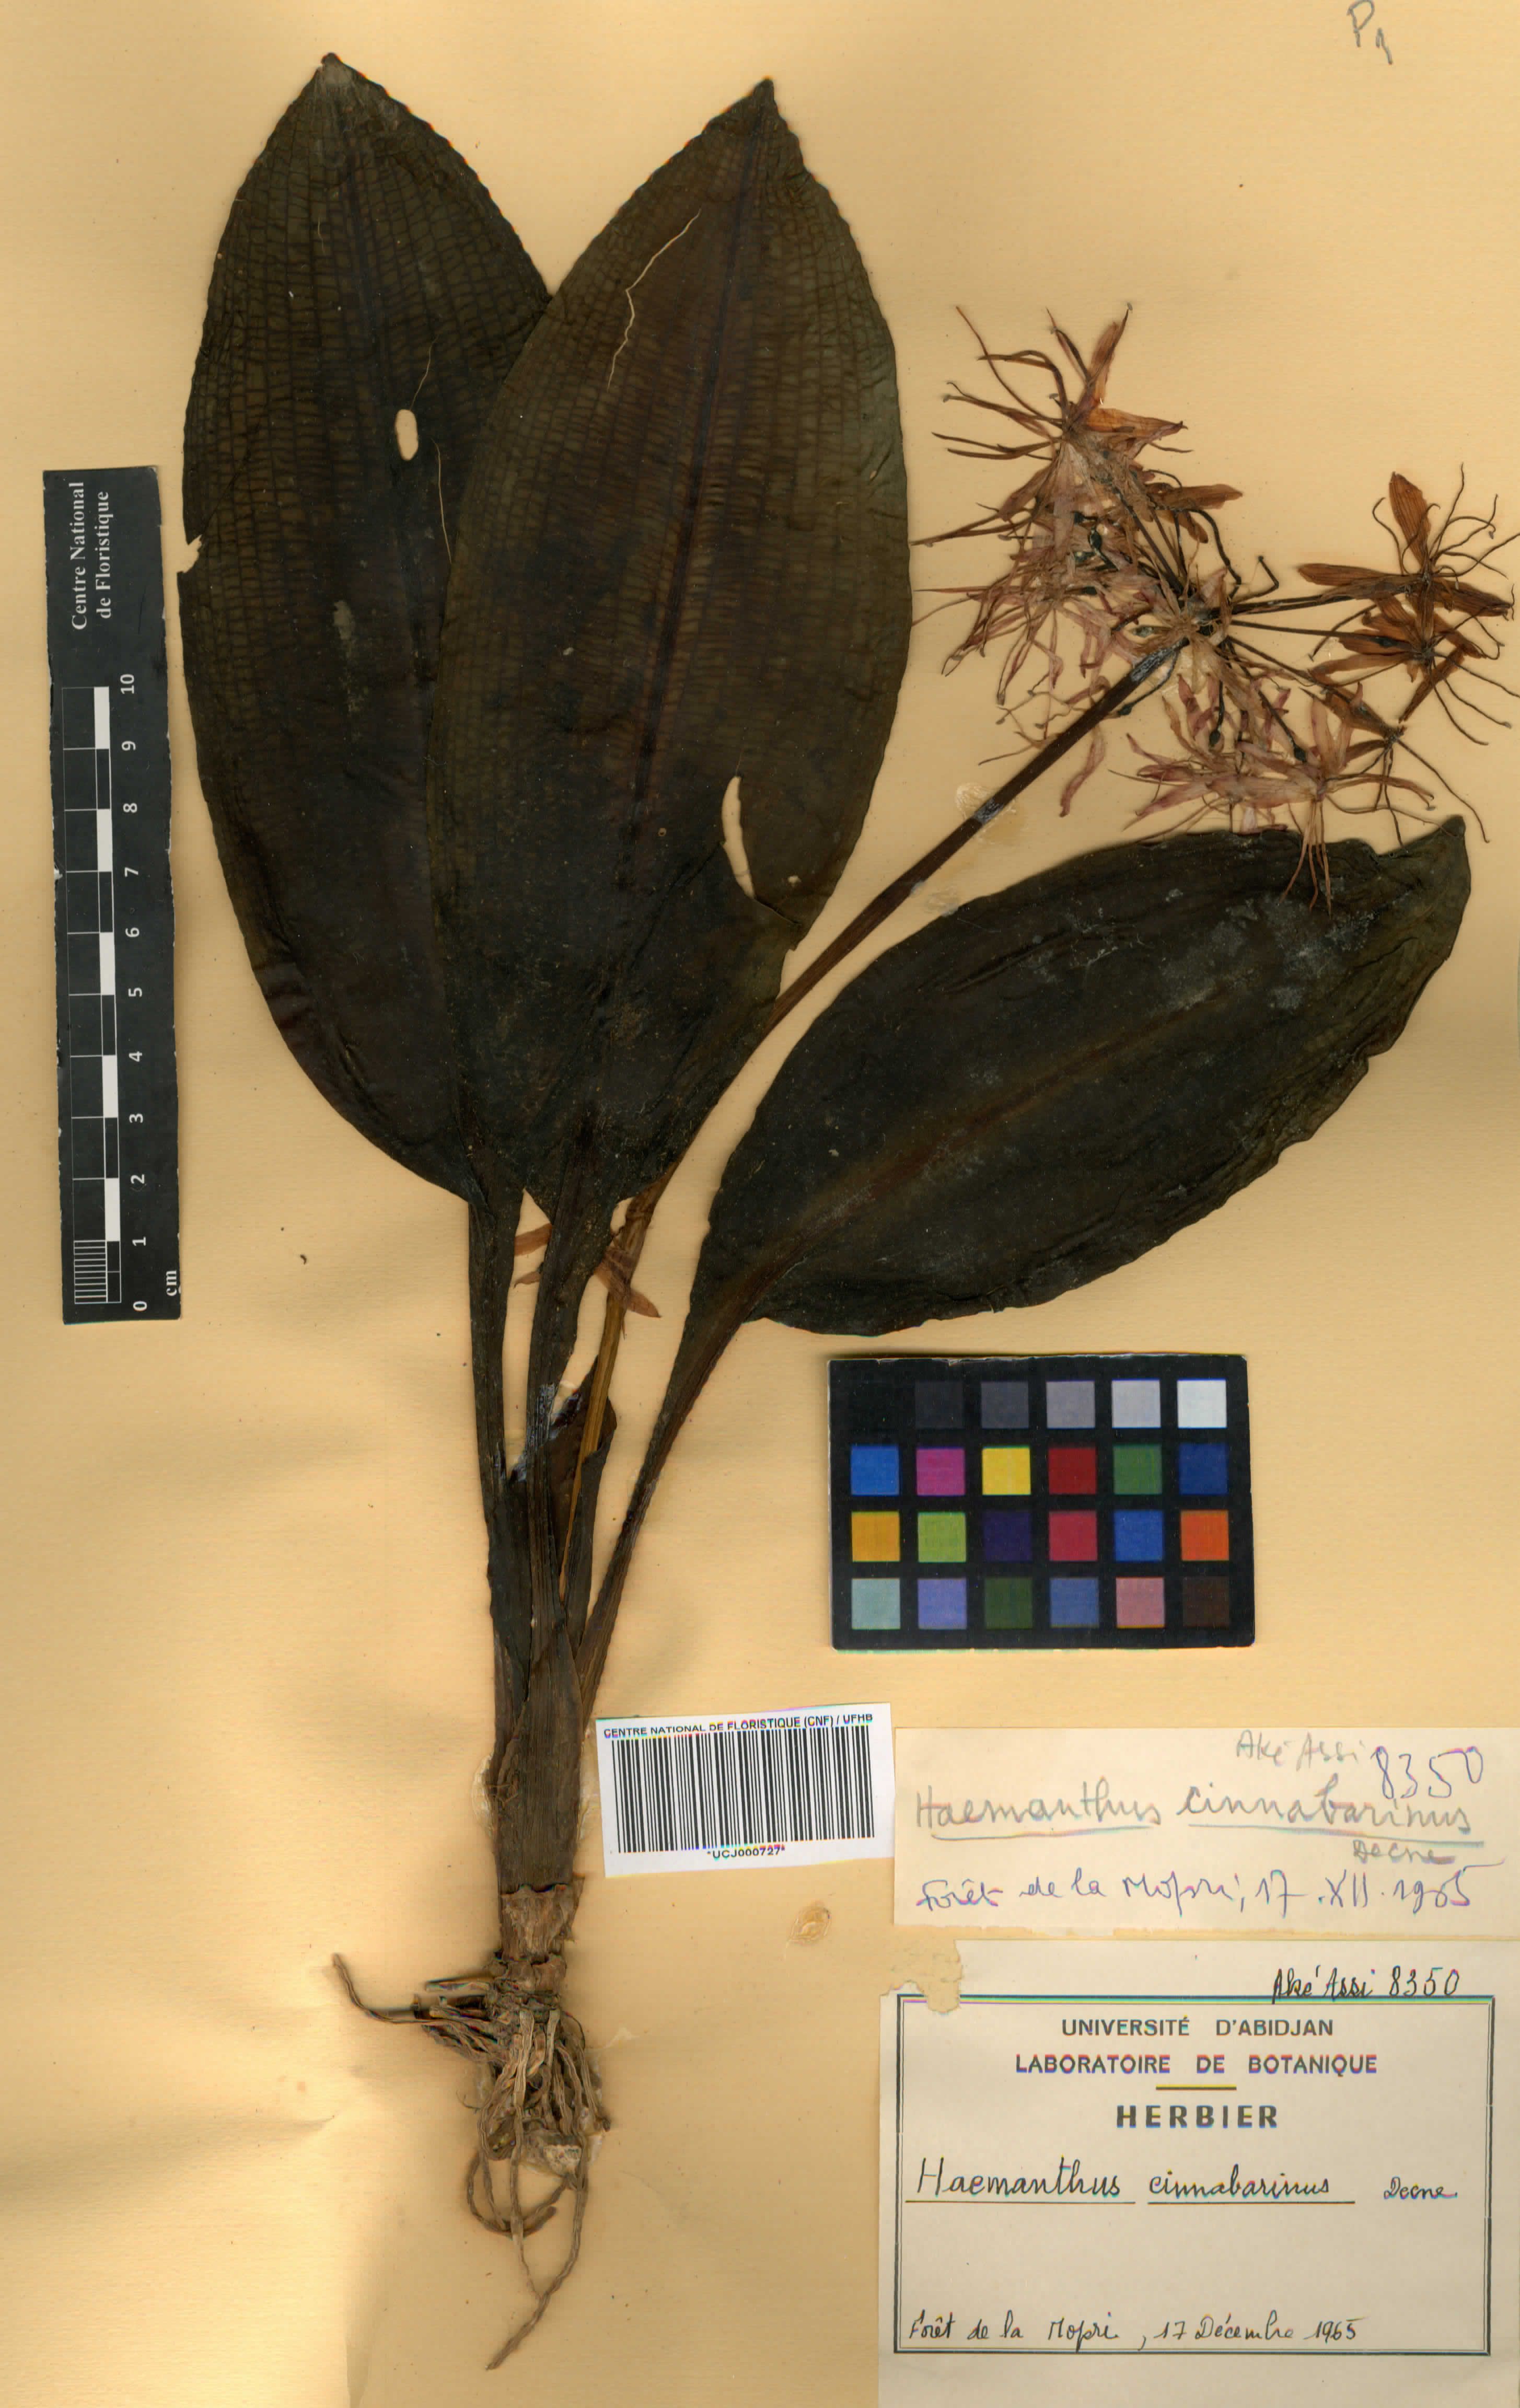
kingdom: Plantae
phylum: Tracheophyta
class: Liliopsida
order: Asparagales
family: Amaryllidaceae
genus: Scadoxus
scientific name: Scadoxus cinnabarinus
